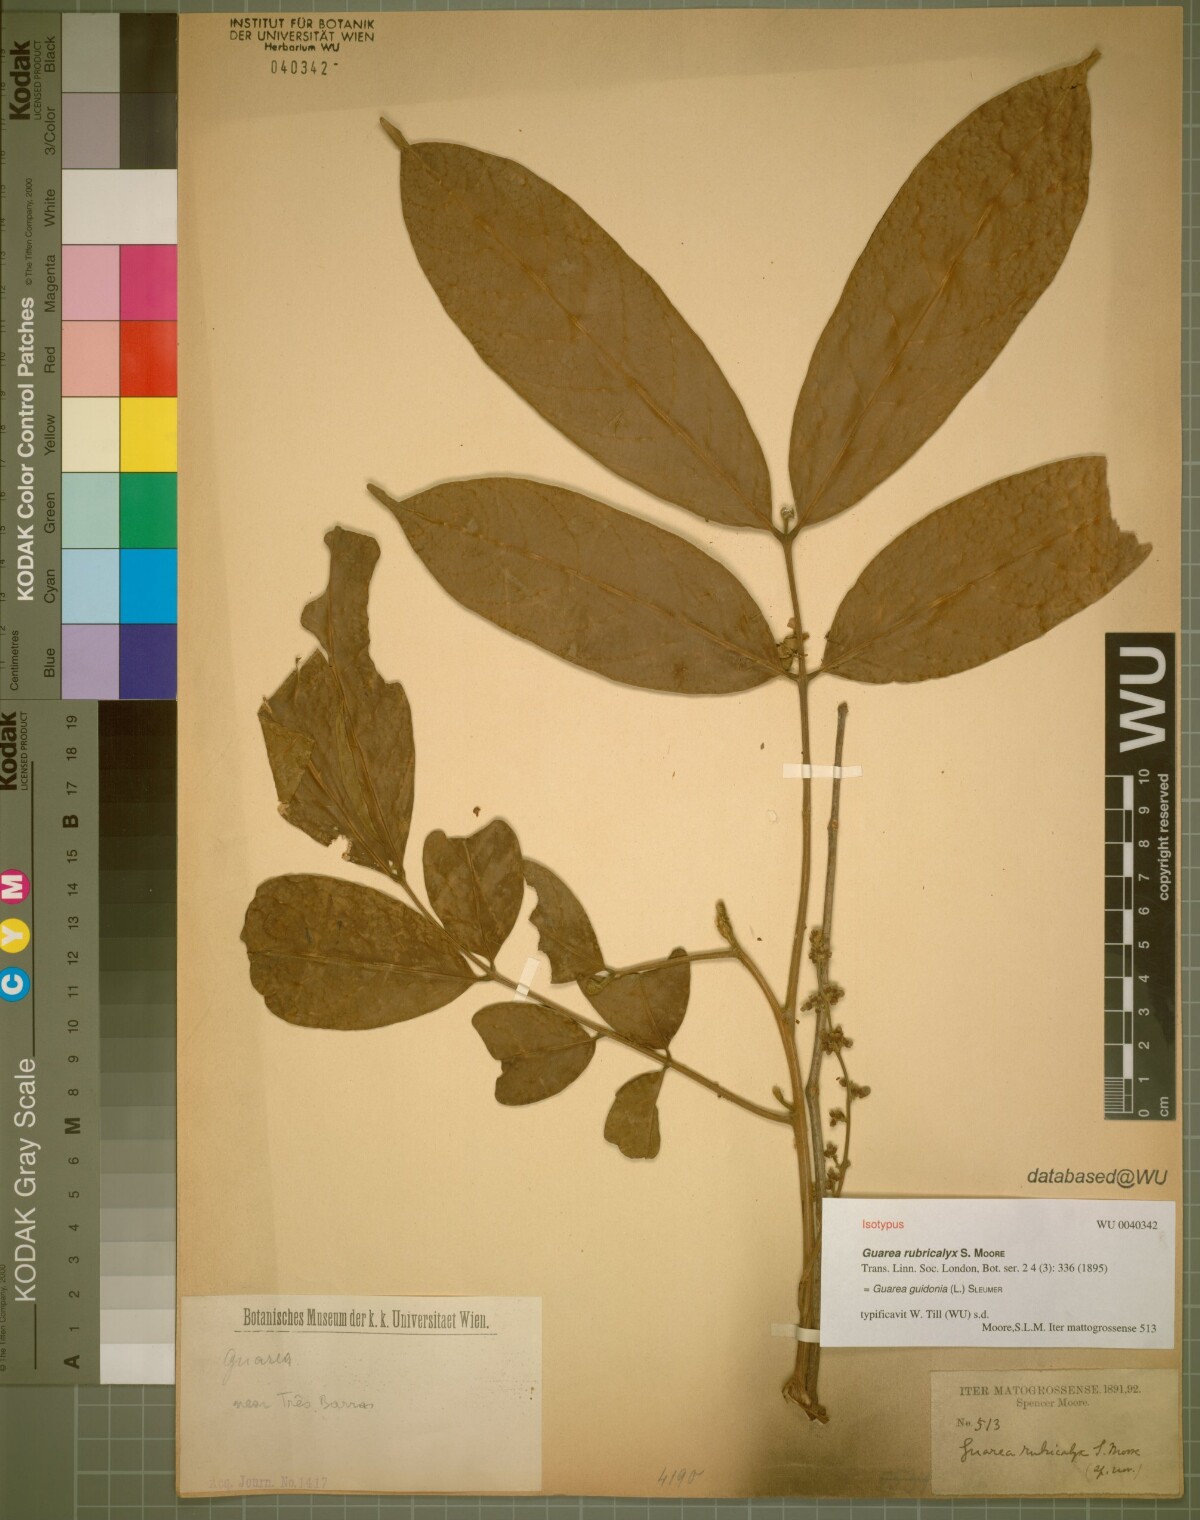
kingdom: Plantae
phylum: Tracheophyta
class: Magnoliopsida
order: Sapindales
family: Meliaceae
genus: Guarea
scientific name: Guarea guidonia
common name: American muskwood
